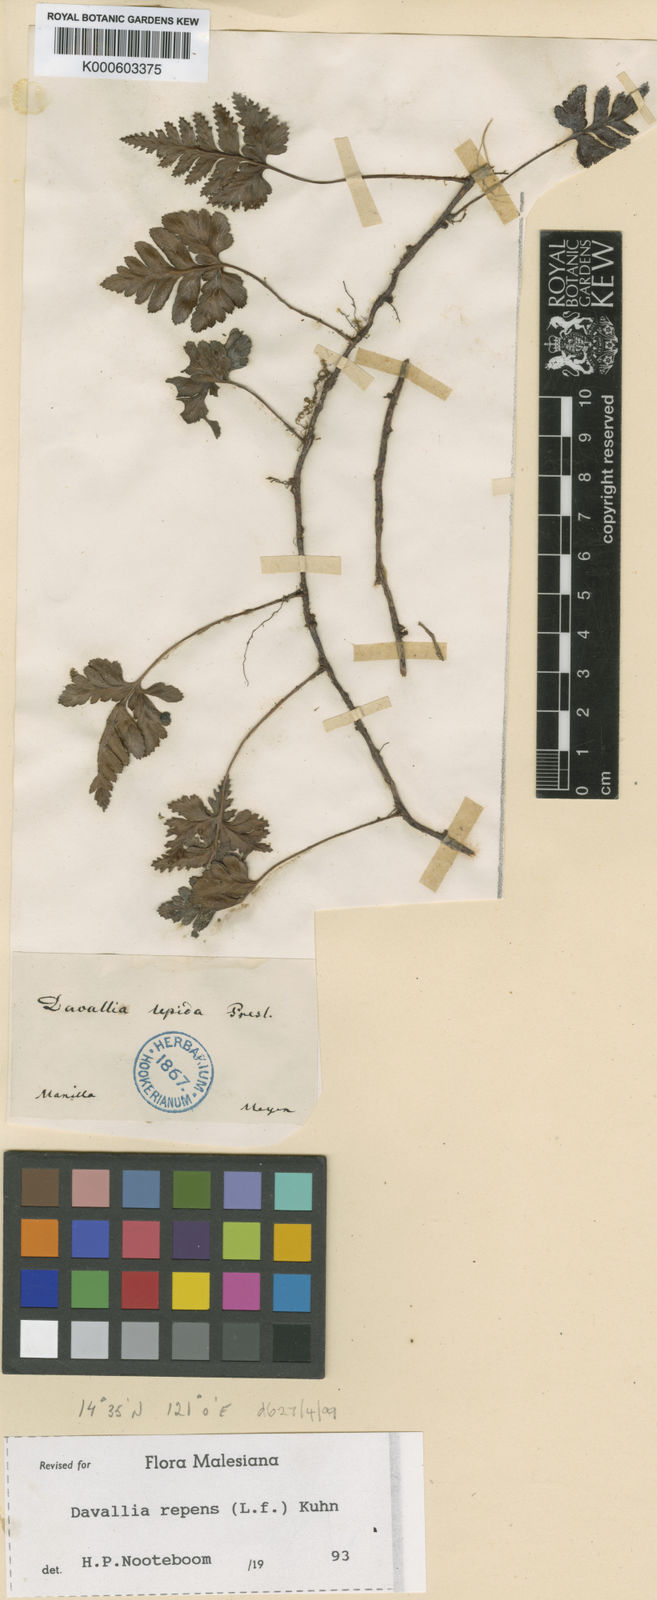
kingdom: Plantae
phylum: Tracheophyta
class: Polypodiopsida
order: Polypodiales
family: Davalliaceae
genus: Davallia
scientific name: Davallia graeffei
